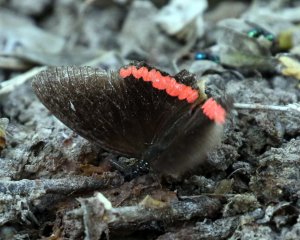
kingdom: Animalia
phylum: Arthropoda
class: Insecta
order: Lepidoptera
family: Sesiidae
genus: Sesia
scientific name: Sesia Biblis hyperia
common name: Red Rim
